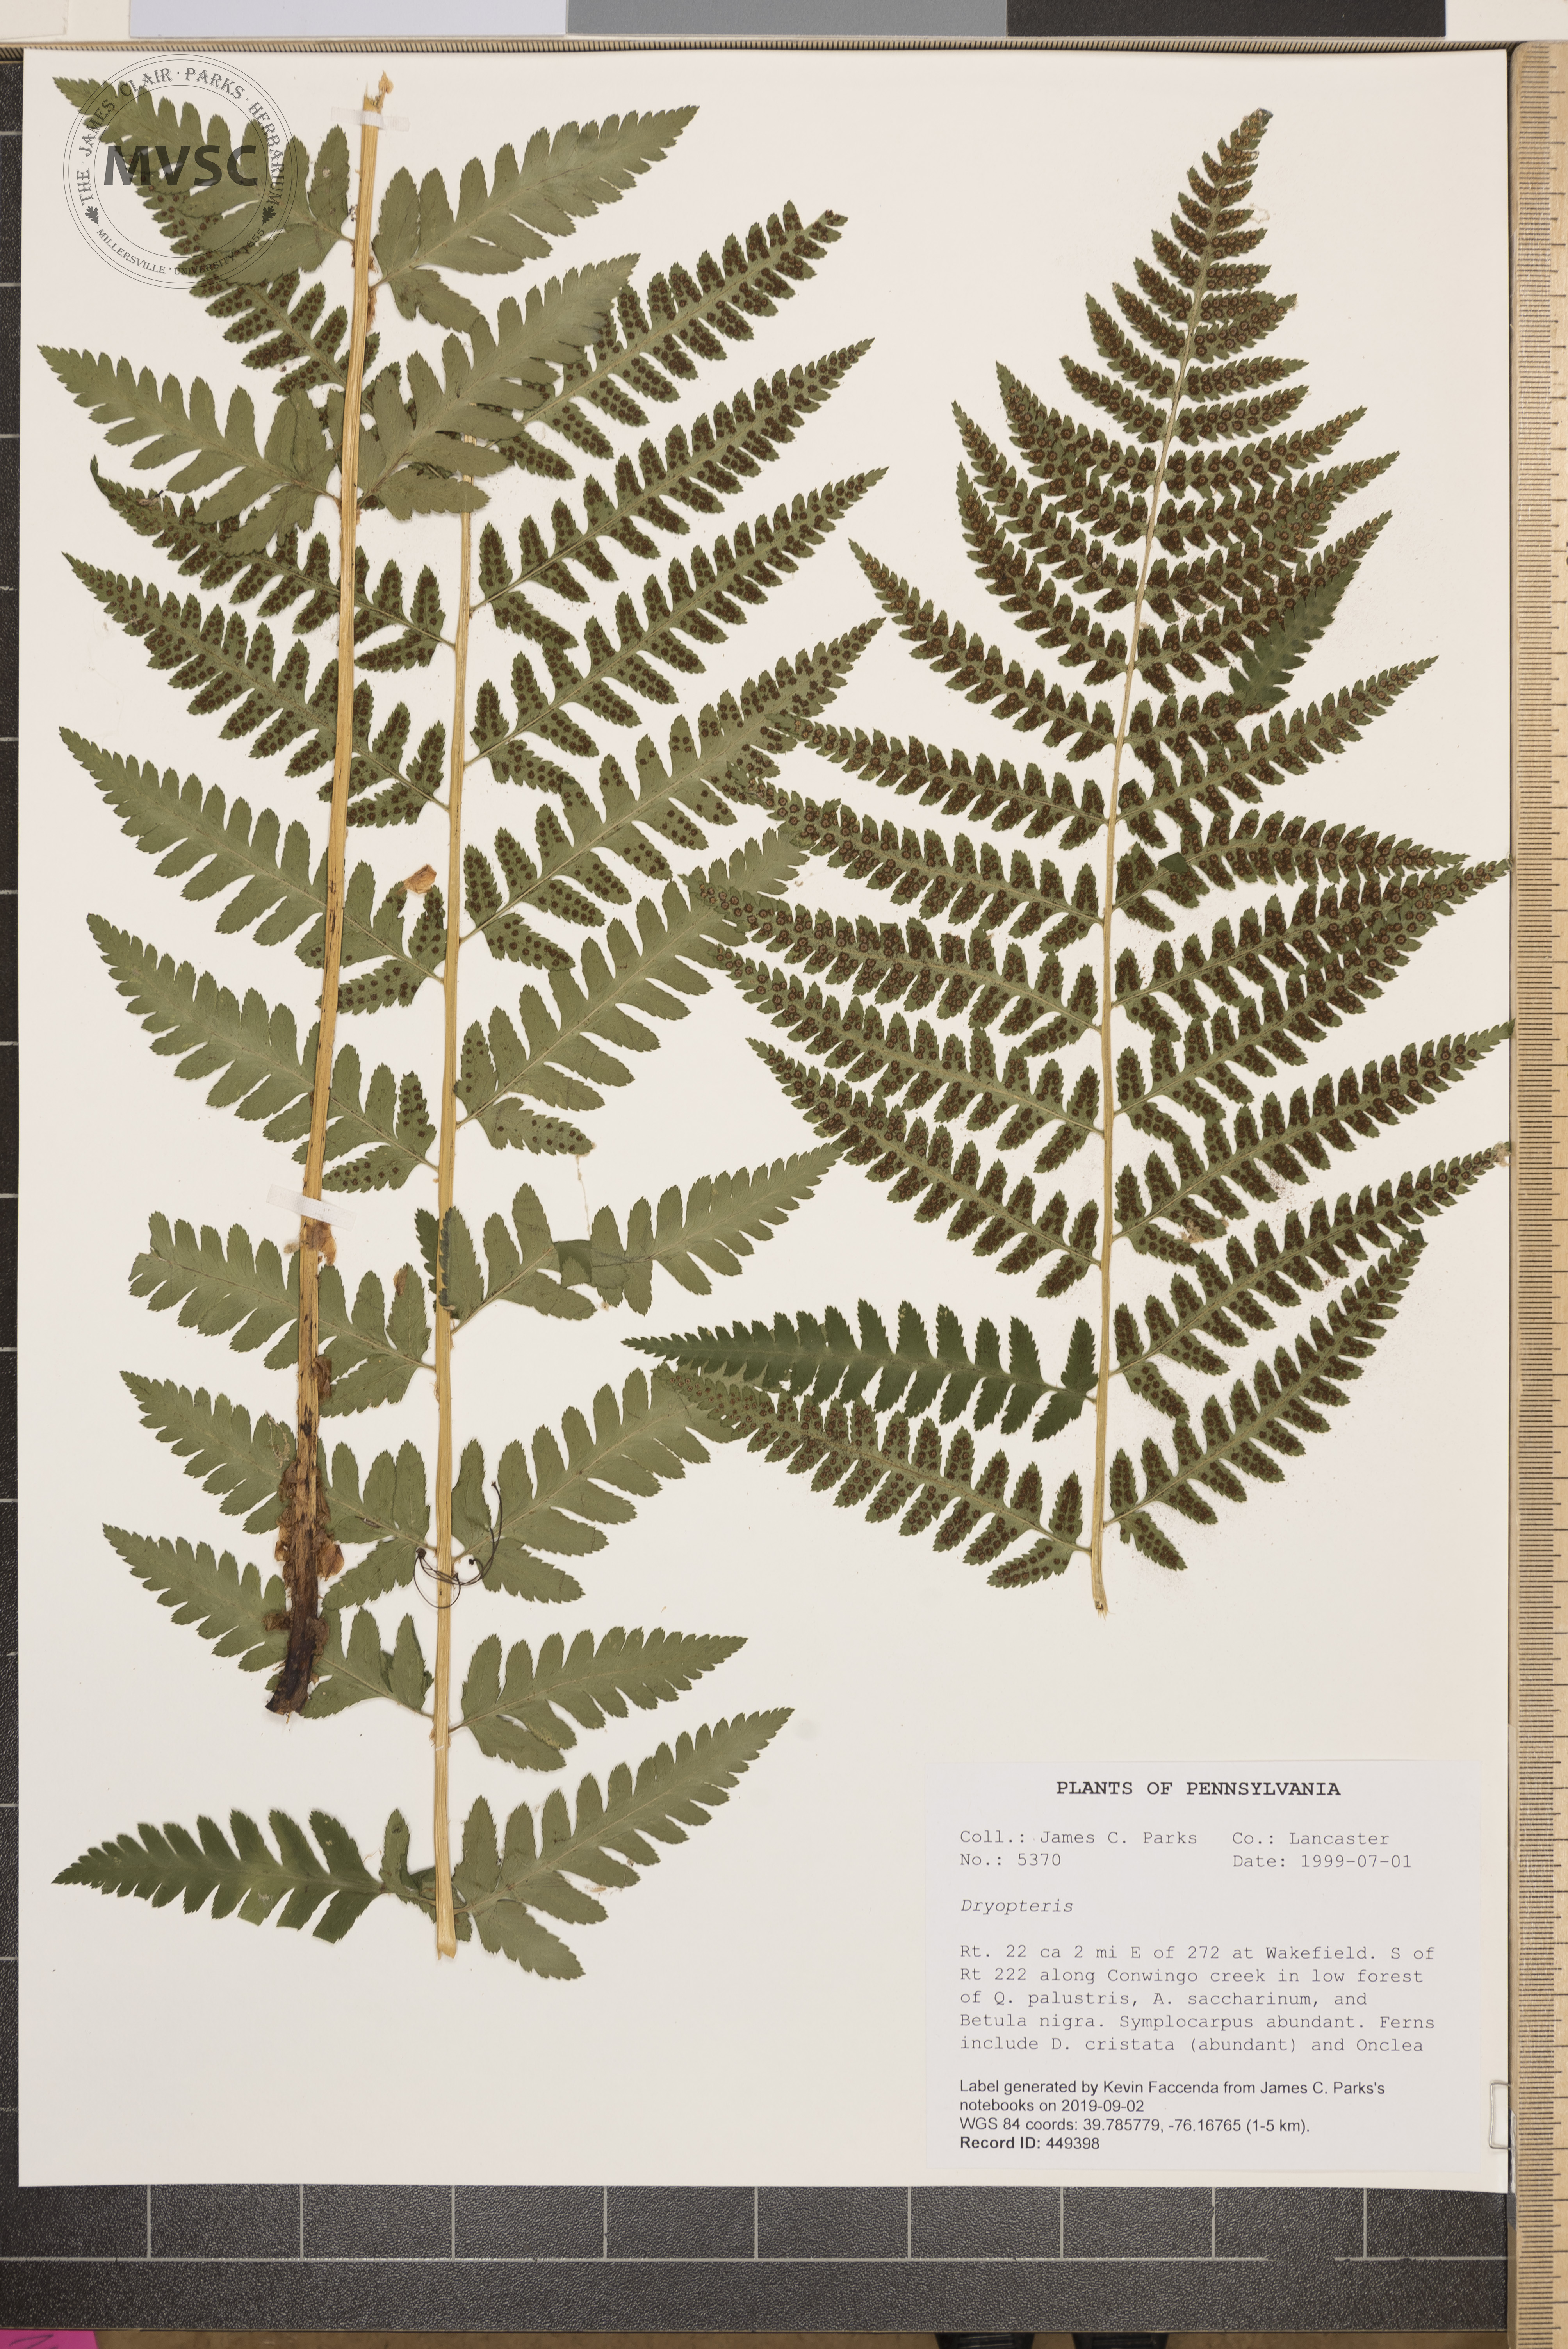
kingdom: Plantae
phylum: Tracheophyta
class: Polypodiopsida
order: Polypodiales
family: Dryopteridaceae
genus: Dryopteris
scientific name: Dryopteris boottii
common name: Boott's fern
